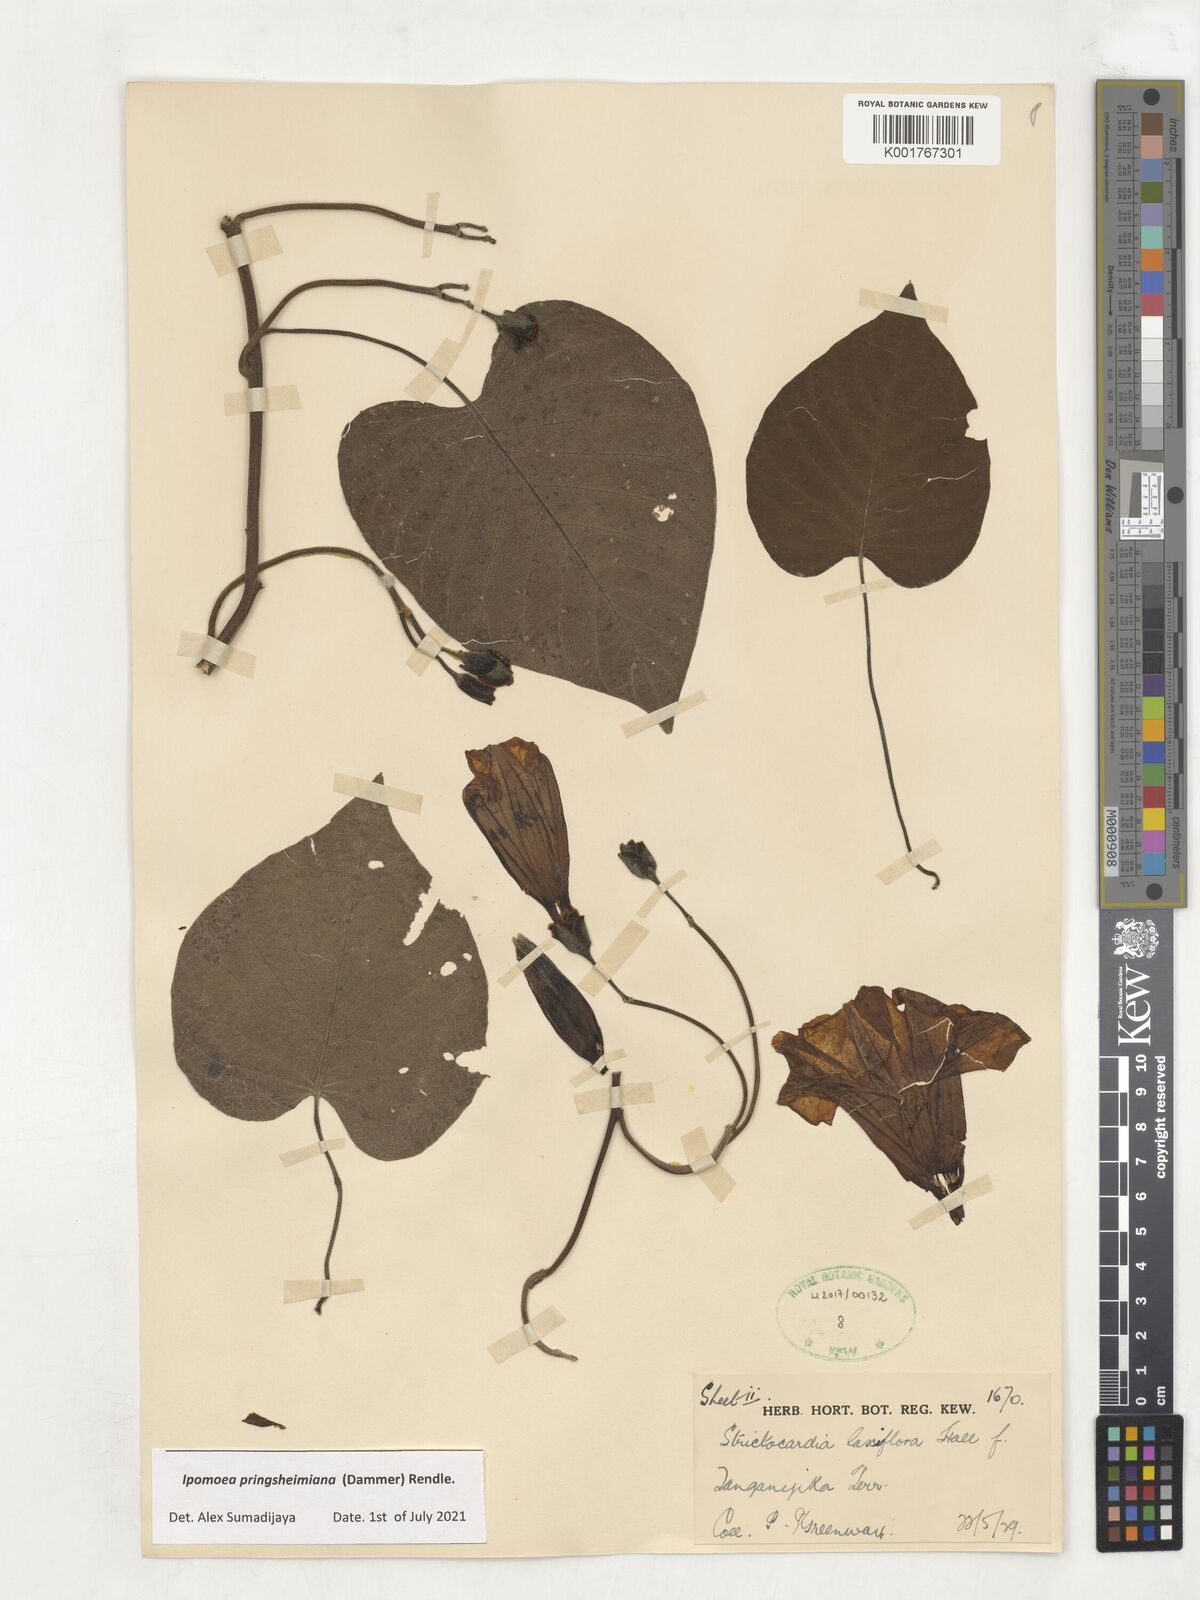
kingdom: Plantae
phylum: Tracheophyta
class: Magnoliopsida
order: Solanales
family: Convolvulaceae
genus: Stictocardia
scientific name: Stictocardia laxiflora
